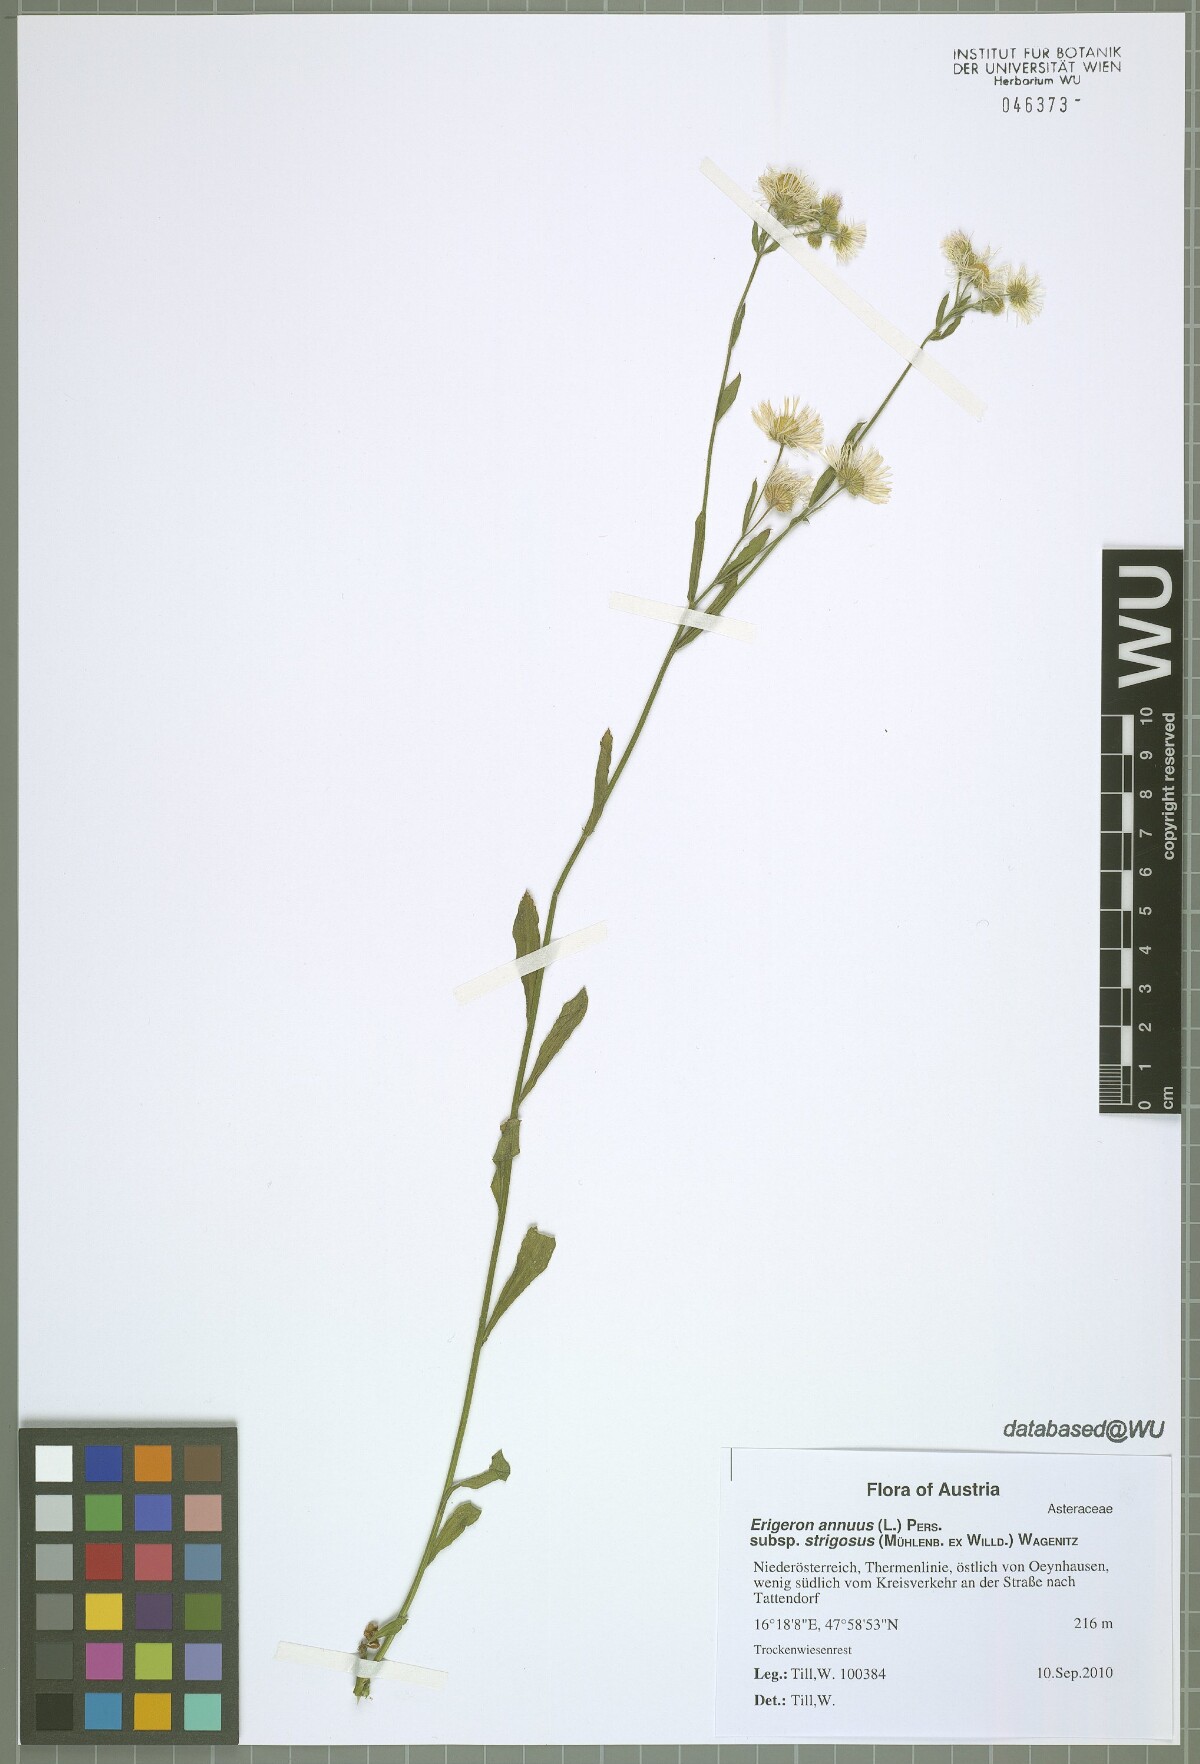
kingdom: Plantae
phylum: Tracheophyta
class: Magnoliopsida
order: Asterales
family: Asteraceae
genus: Erigeron
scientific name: Erigeron strigosus
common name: Common eastern fleabane
